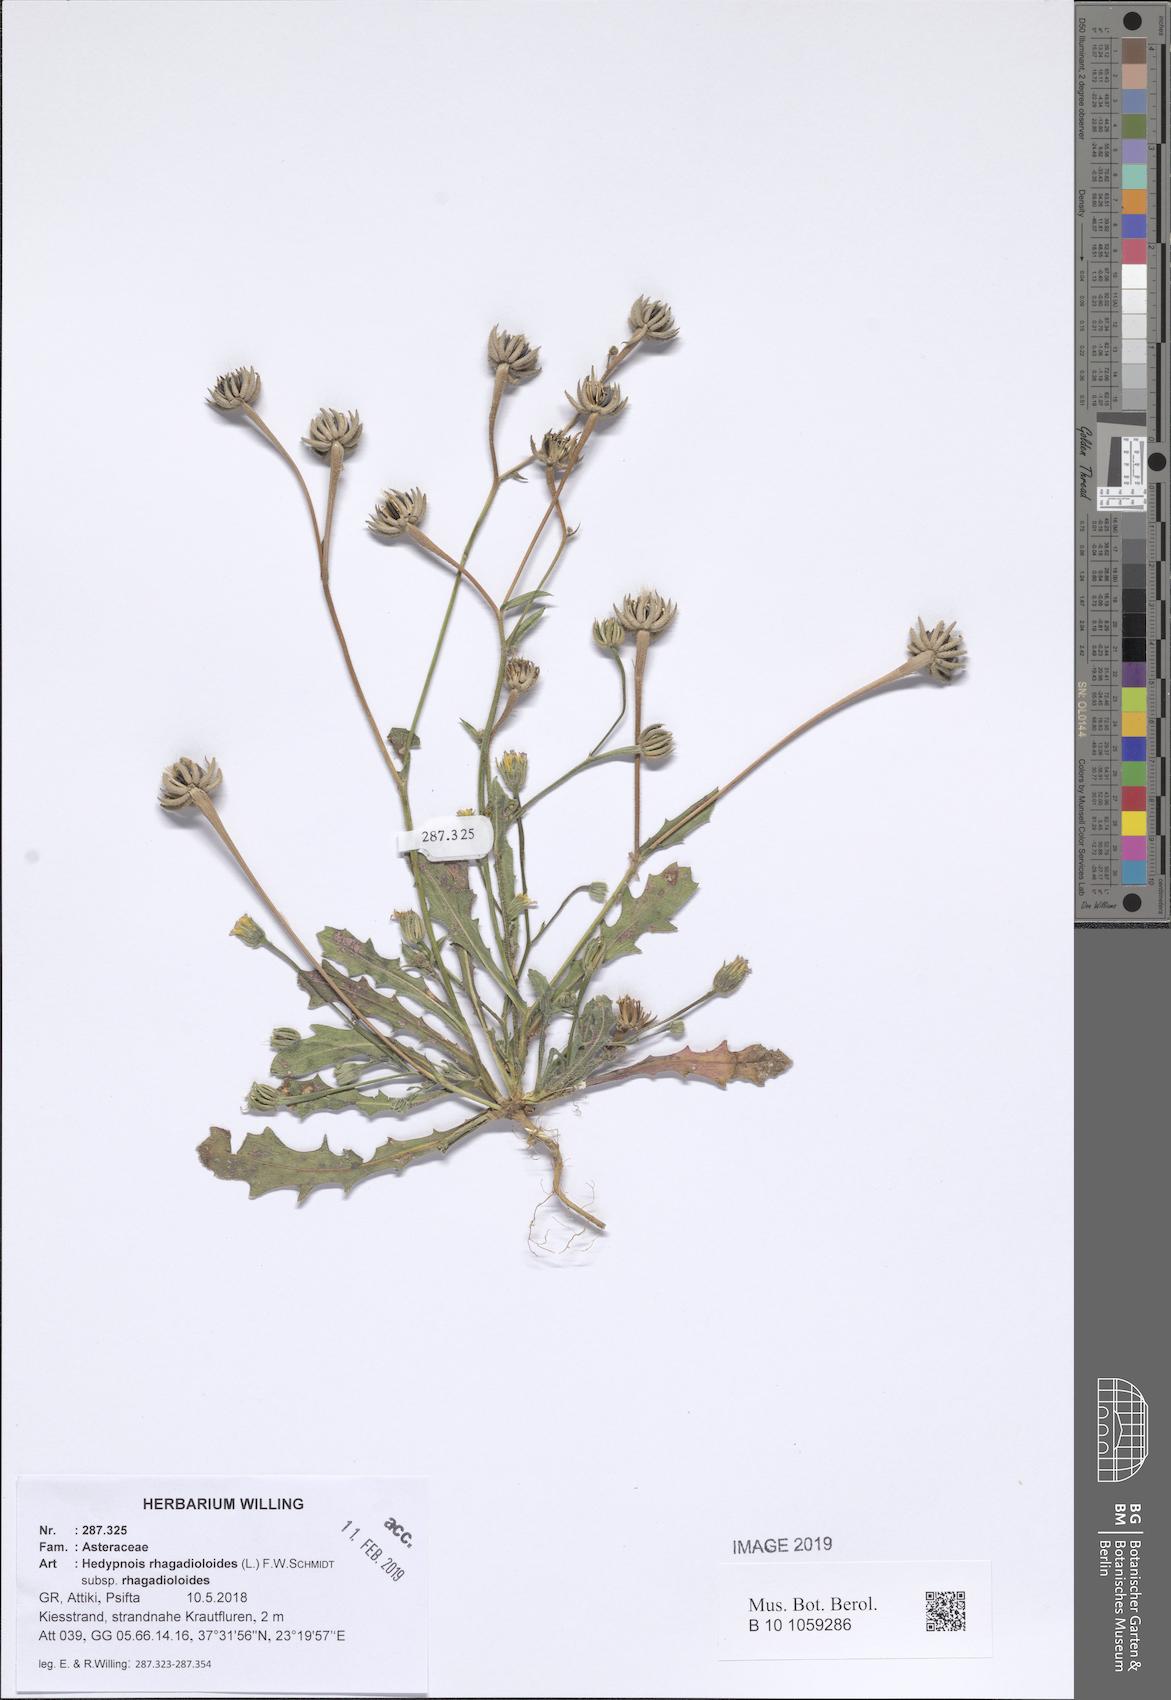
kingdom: Plantae
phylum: Tracheophyta
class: Magnoliopsida
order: Asterales
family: Asteraceae
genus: Hedypnois
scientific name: Hedypnois rhagadioloides
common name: Cretan weed
